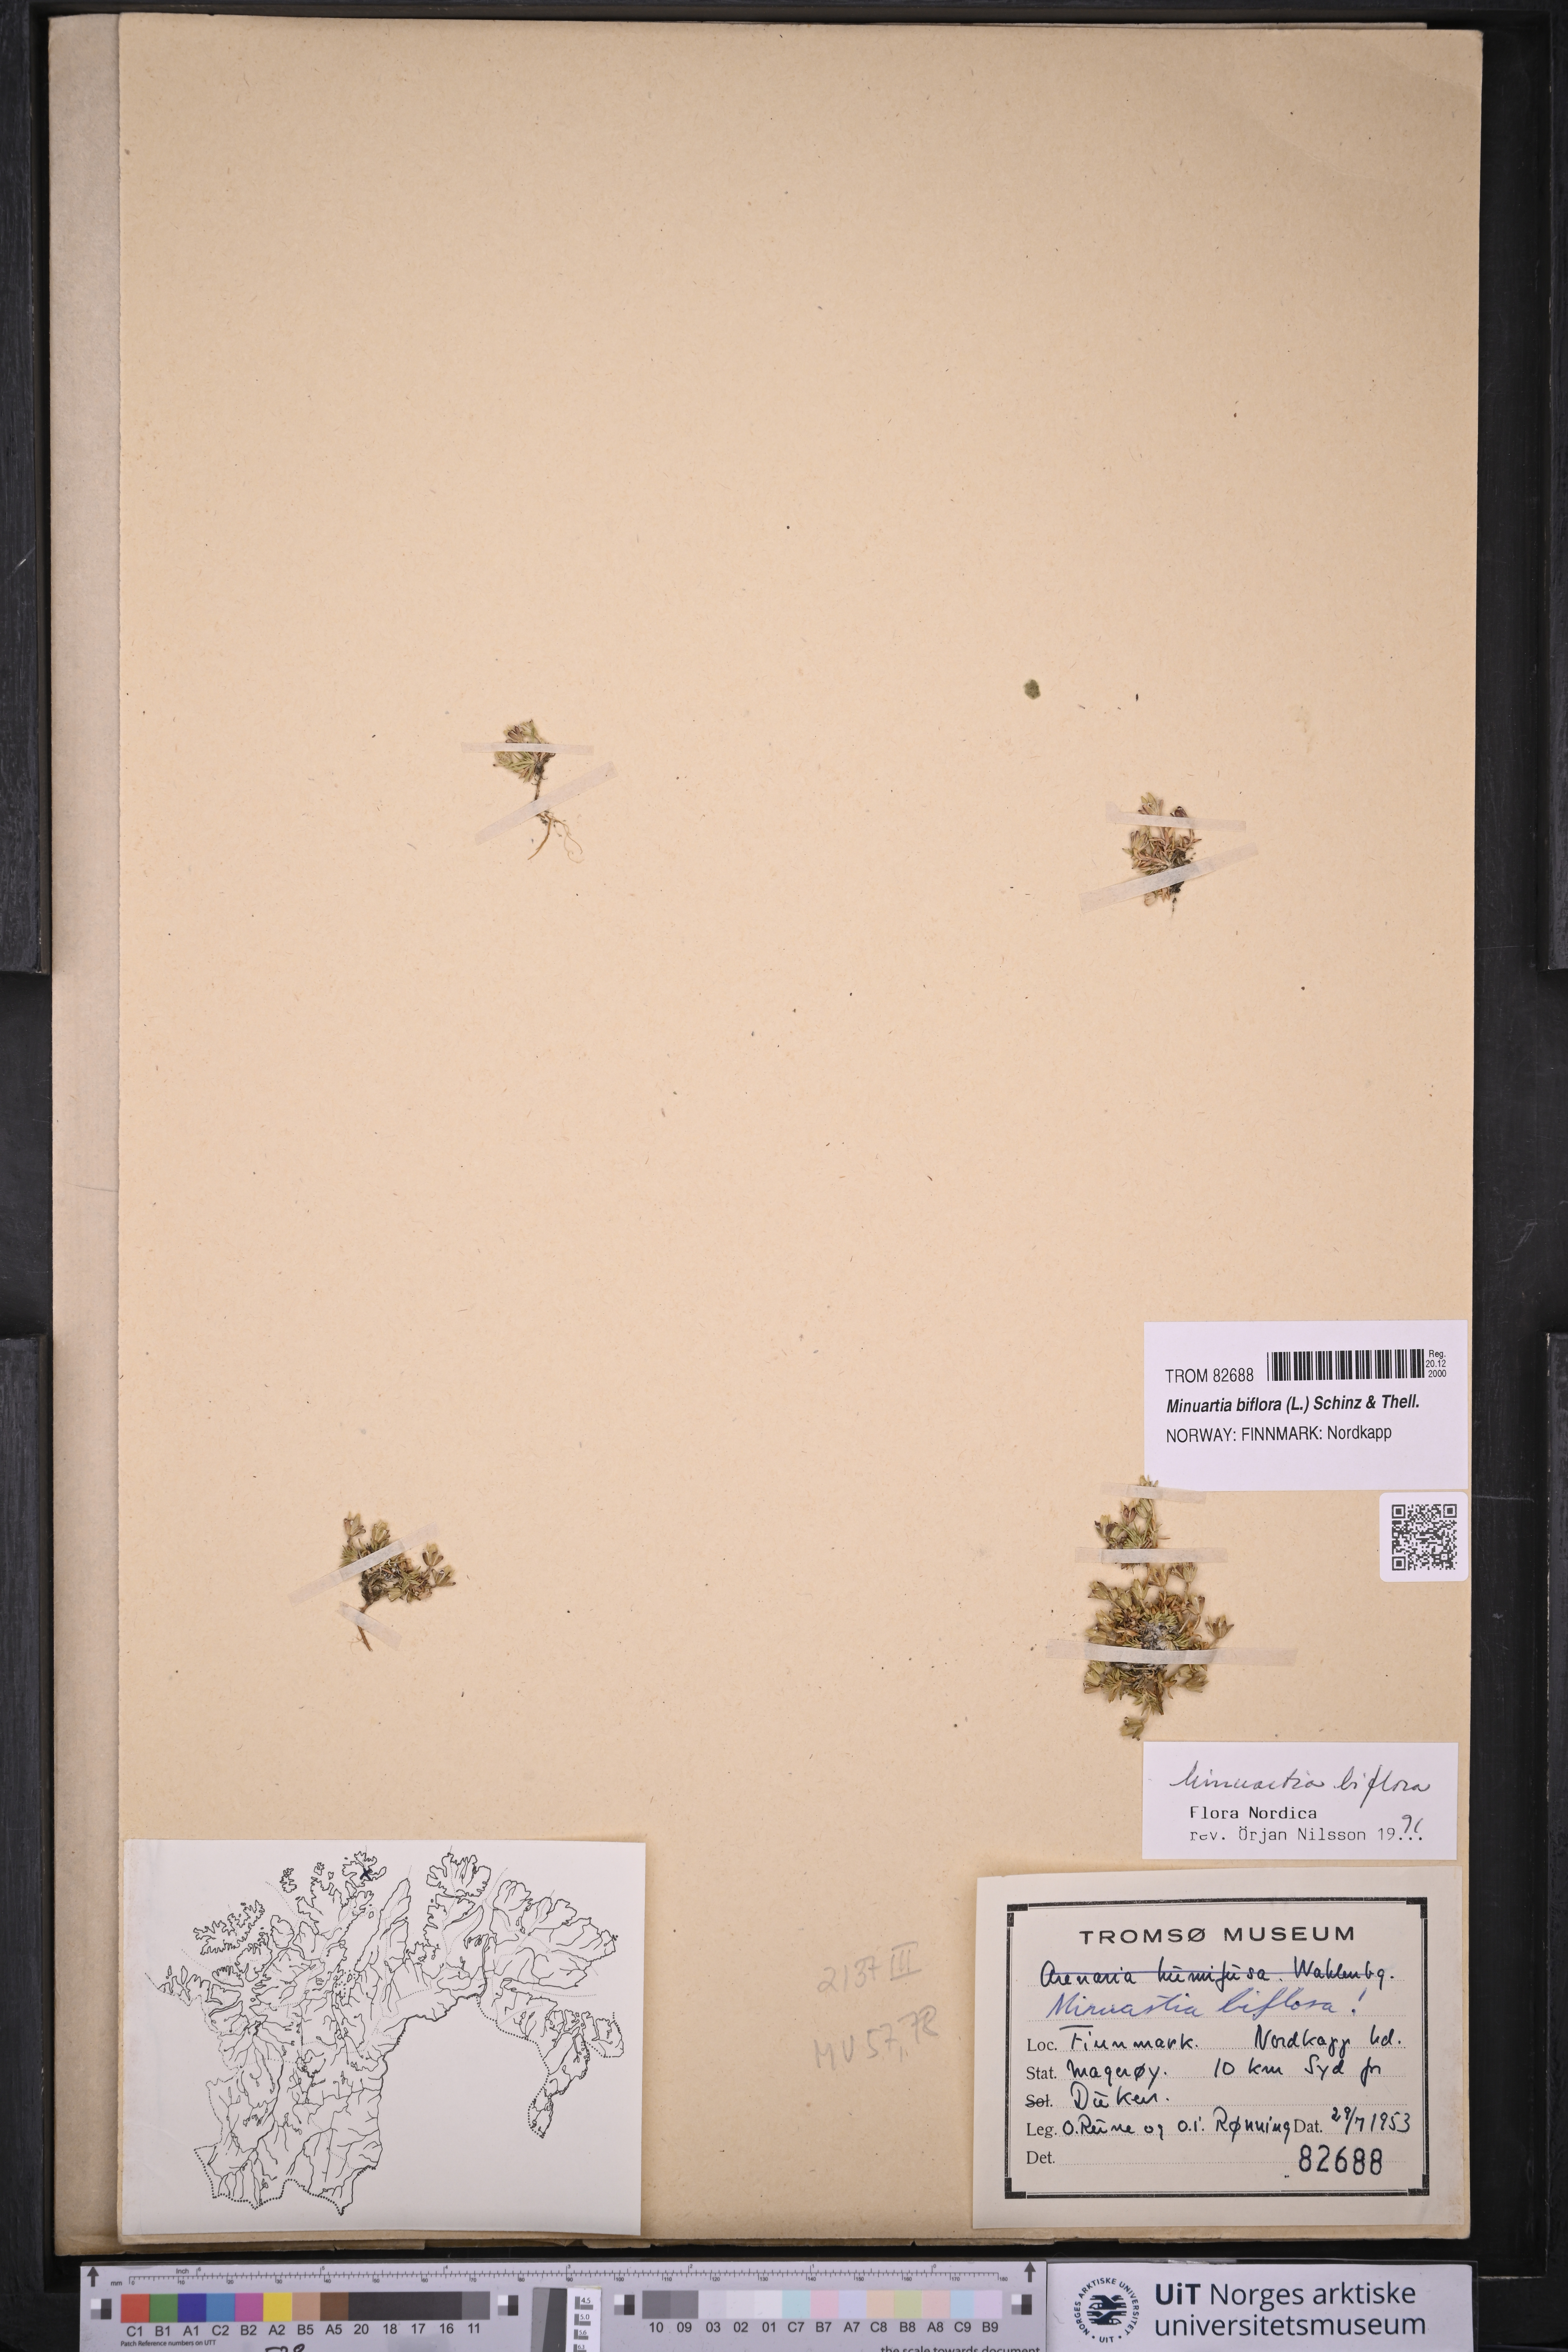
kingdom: Plantae
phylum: Tracheophyta
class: Magnoliopsida
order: Caryophyllales
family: Caryophyllaceae
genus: Cherleria
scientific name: Cherleria biflora
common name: Mountain sandwort
